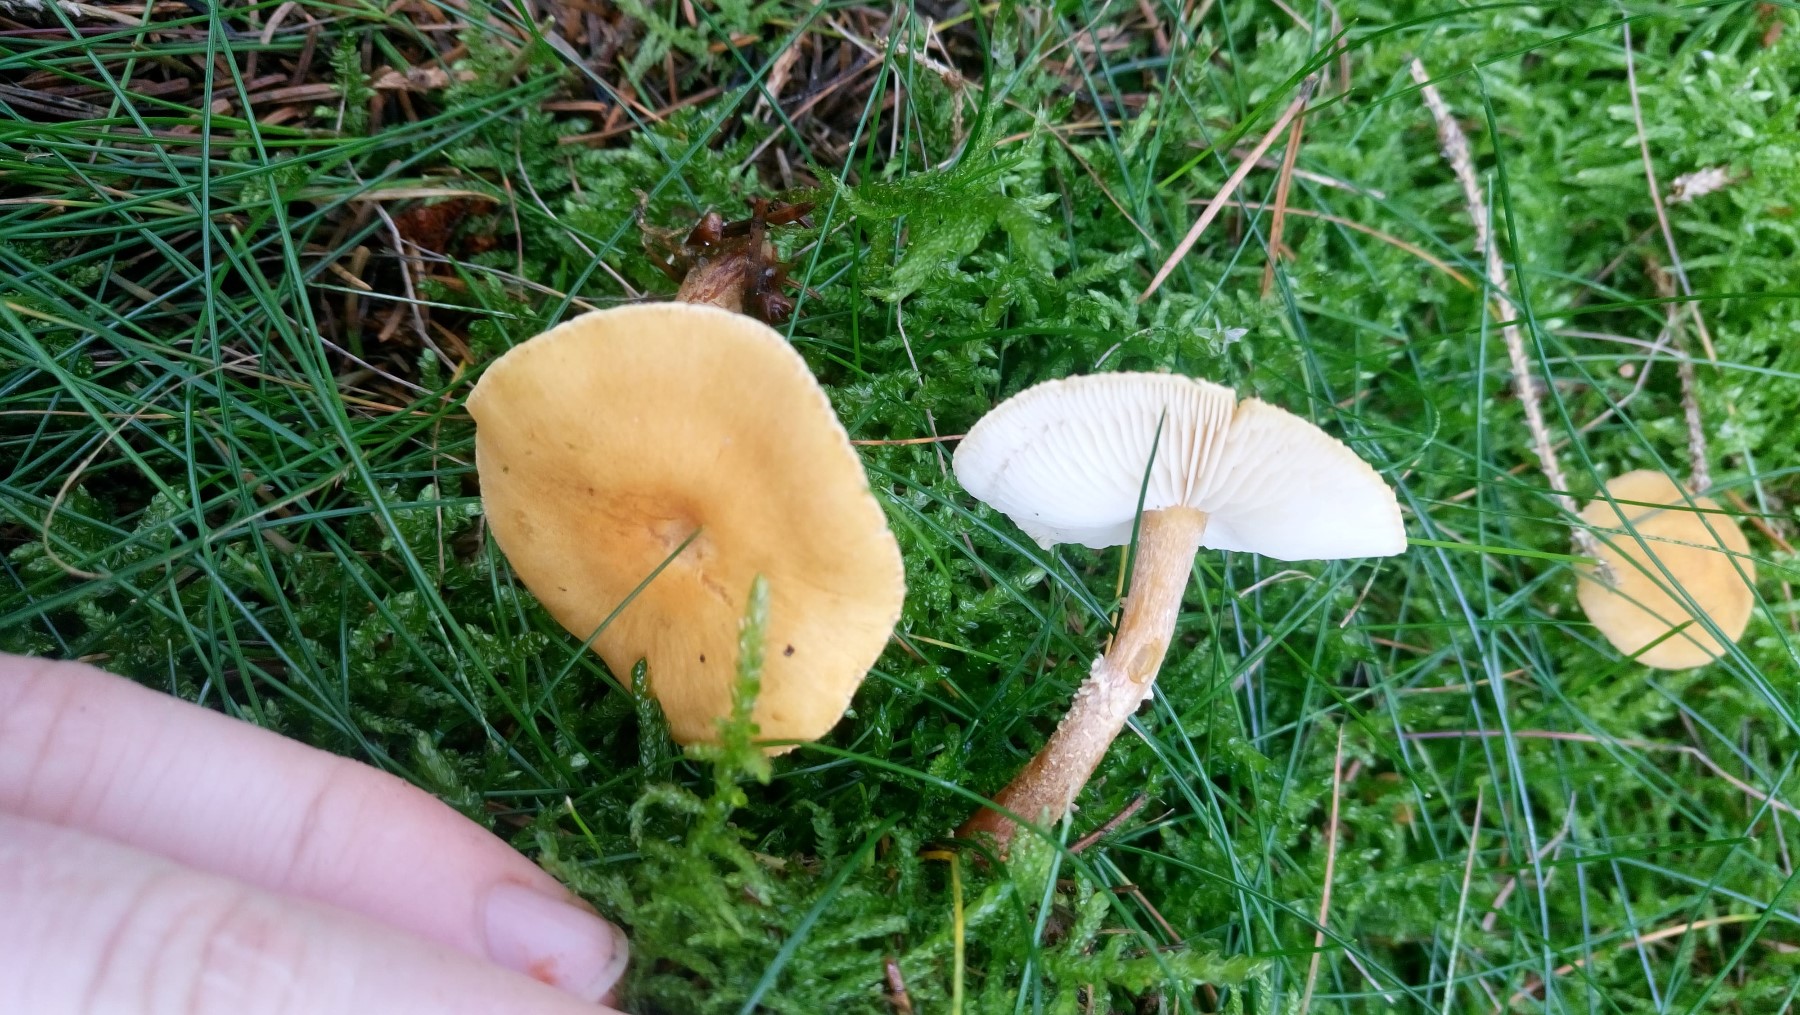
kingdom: Fungi
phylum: Basidiomycota
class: Agaricomycetes
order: Agaricales
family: Tricholomataceae
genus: Cystoderma
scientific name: Cystoderma amianthinum
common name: okkergul grynhat
